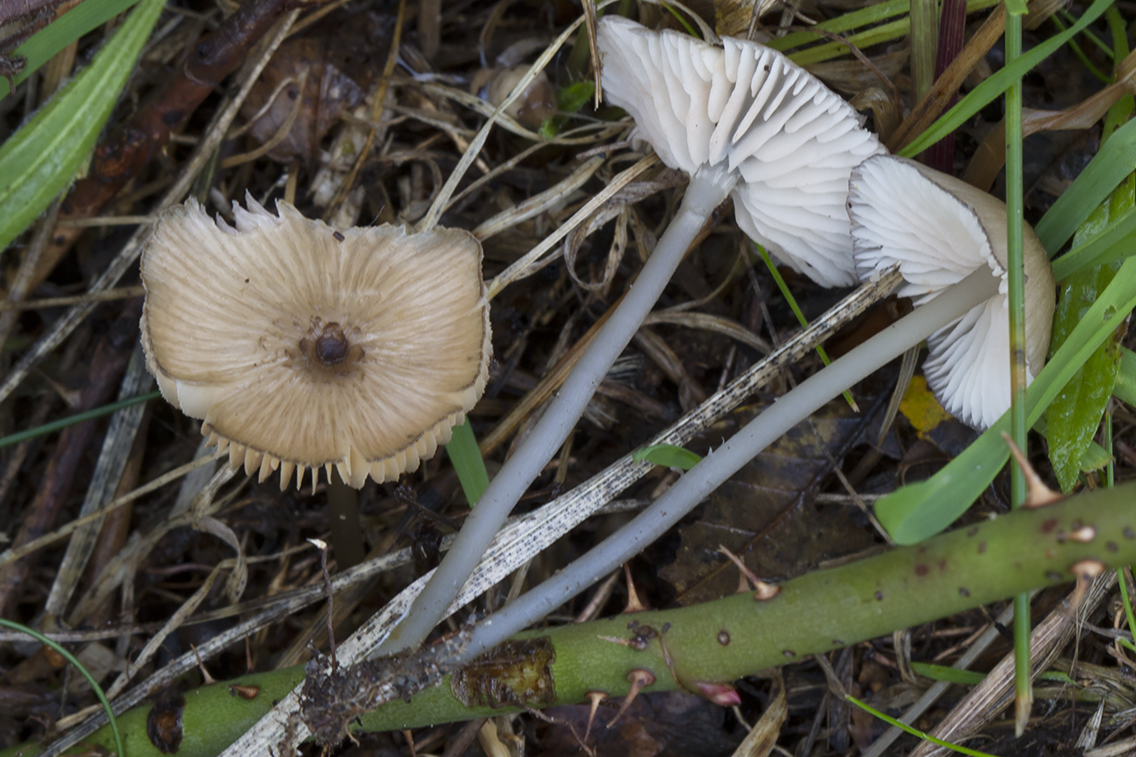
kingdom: Fungi
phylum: Basidiomycota
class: Agaricomycetes
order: Agaricales
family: Entolomataceae
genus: Entoloma
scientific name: Entoloma exile
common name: rødplettet rødblad
